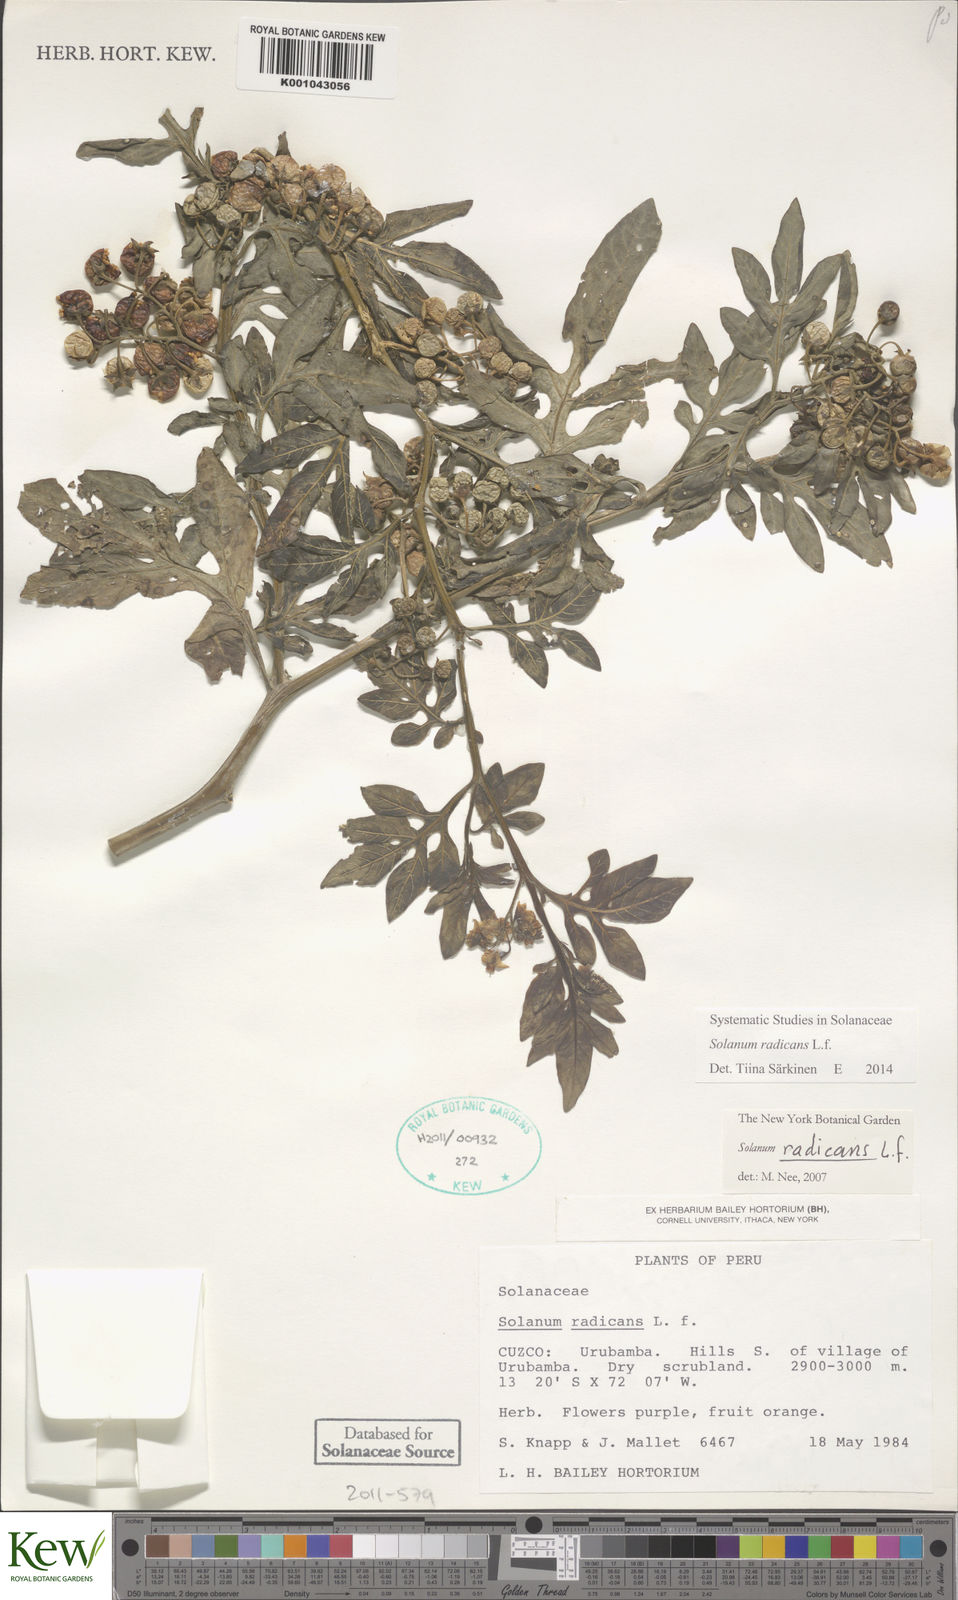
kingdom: Plantae
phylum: Tracheophyta
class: Magnoliopsida
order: Solanales
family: Solanaceae
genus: Solanum
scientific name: Solanum radicans
